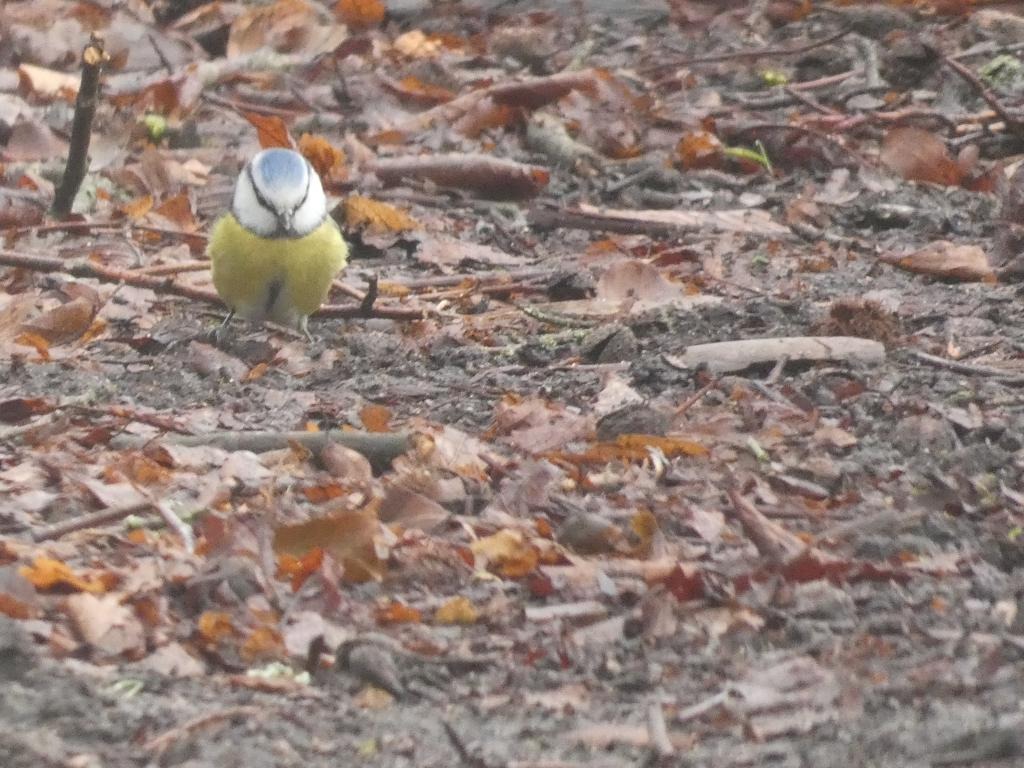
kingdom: Animalia
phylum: Chordata
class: Aves
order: Passeriformes
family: Paridae
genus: Cyanistes
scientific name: Cyanistes caeruleus
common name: Blåmejse
